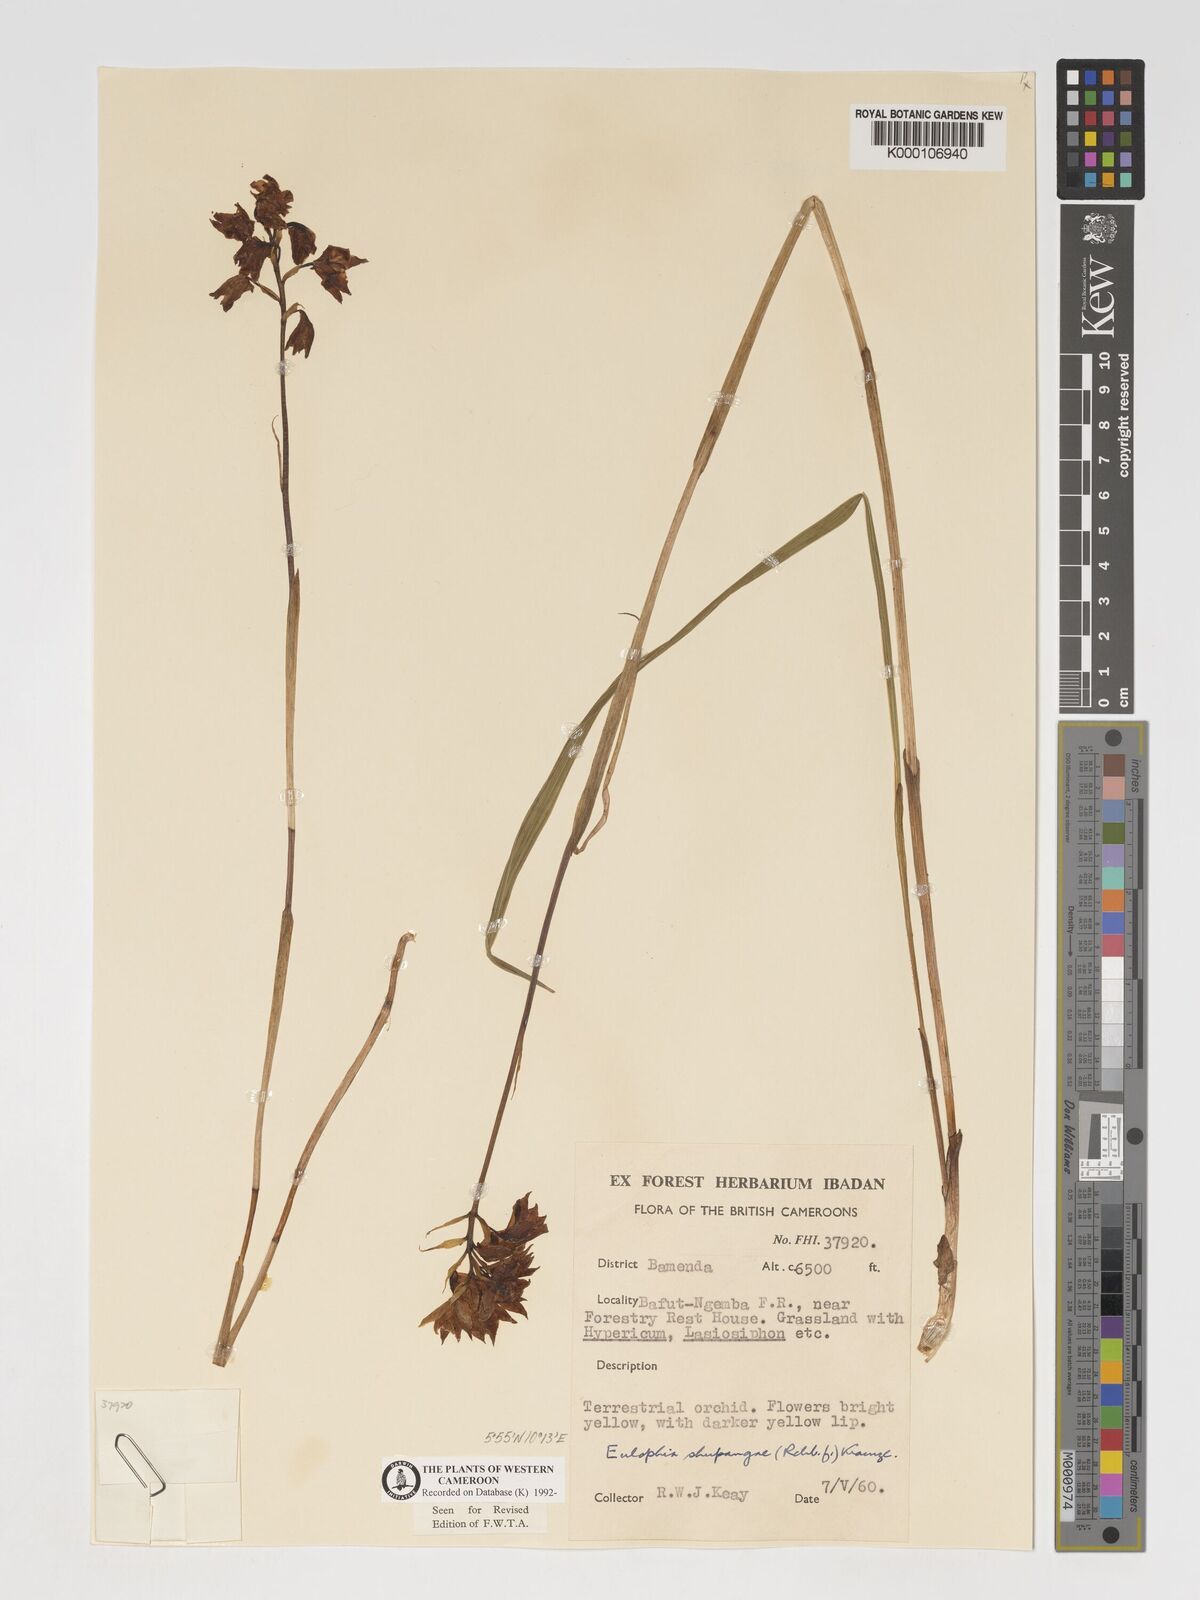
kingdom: Plantae
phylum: Tracheophyta
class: Liliopsida
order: Asparagales
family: Orchidaceae
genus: Eulophia
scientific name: Eulophia odontoglossa
